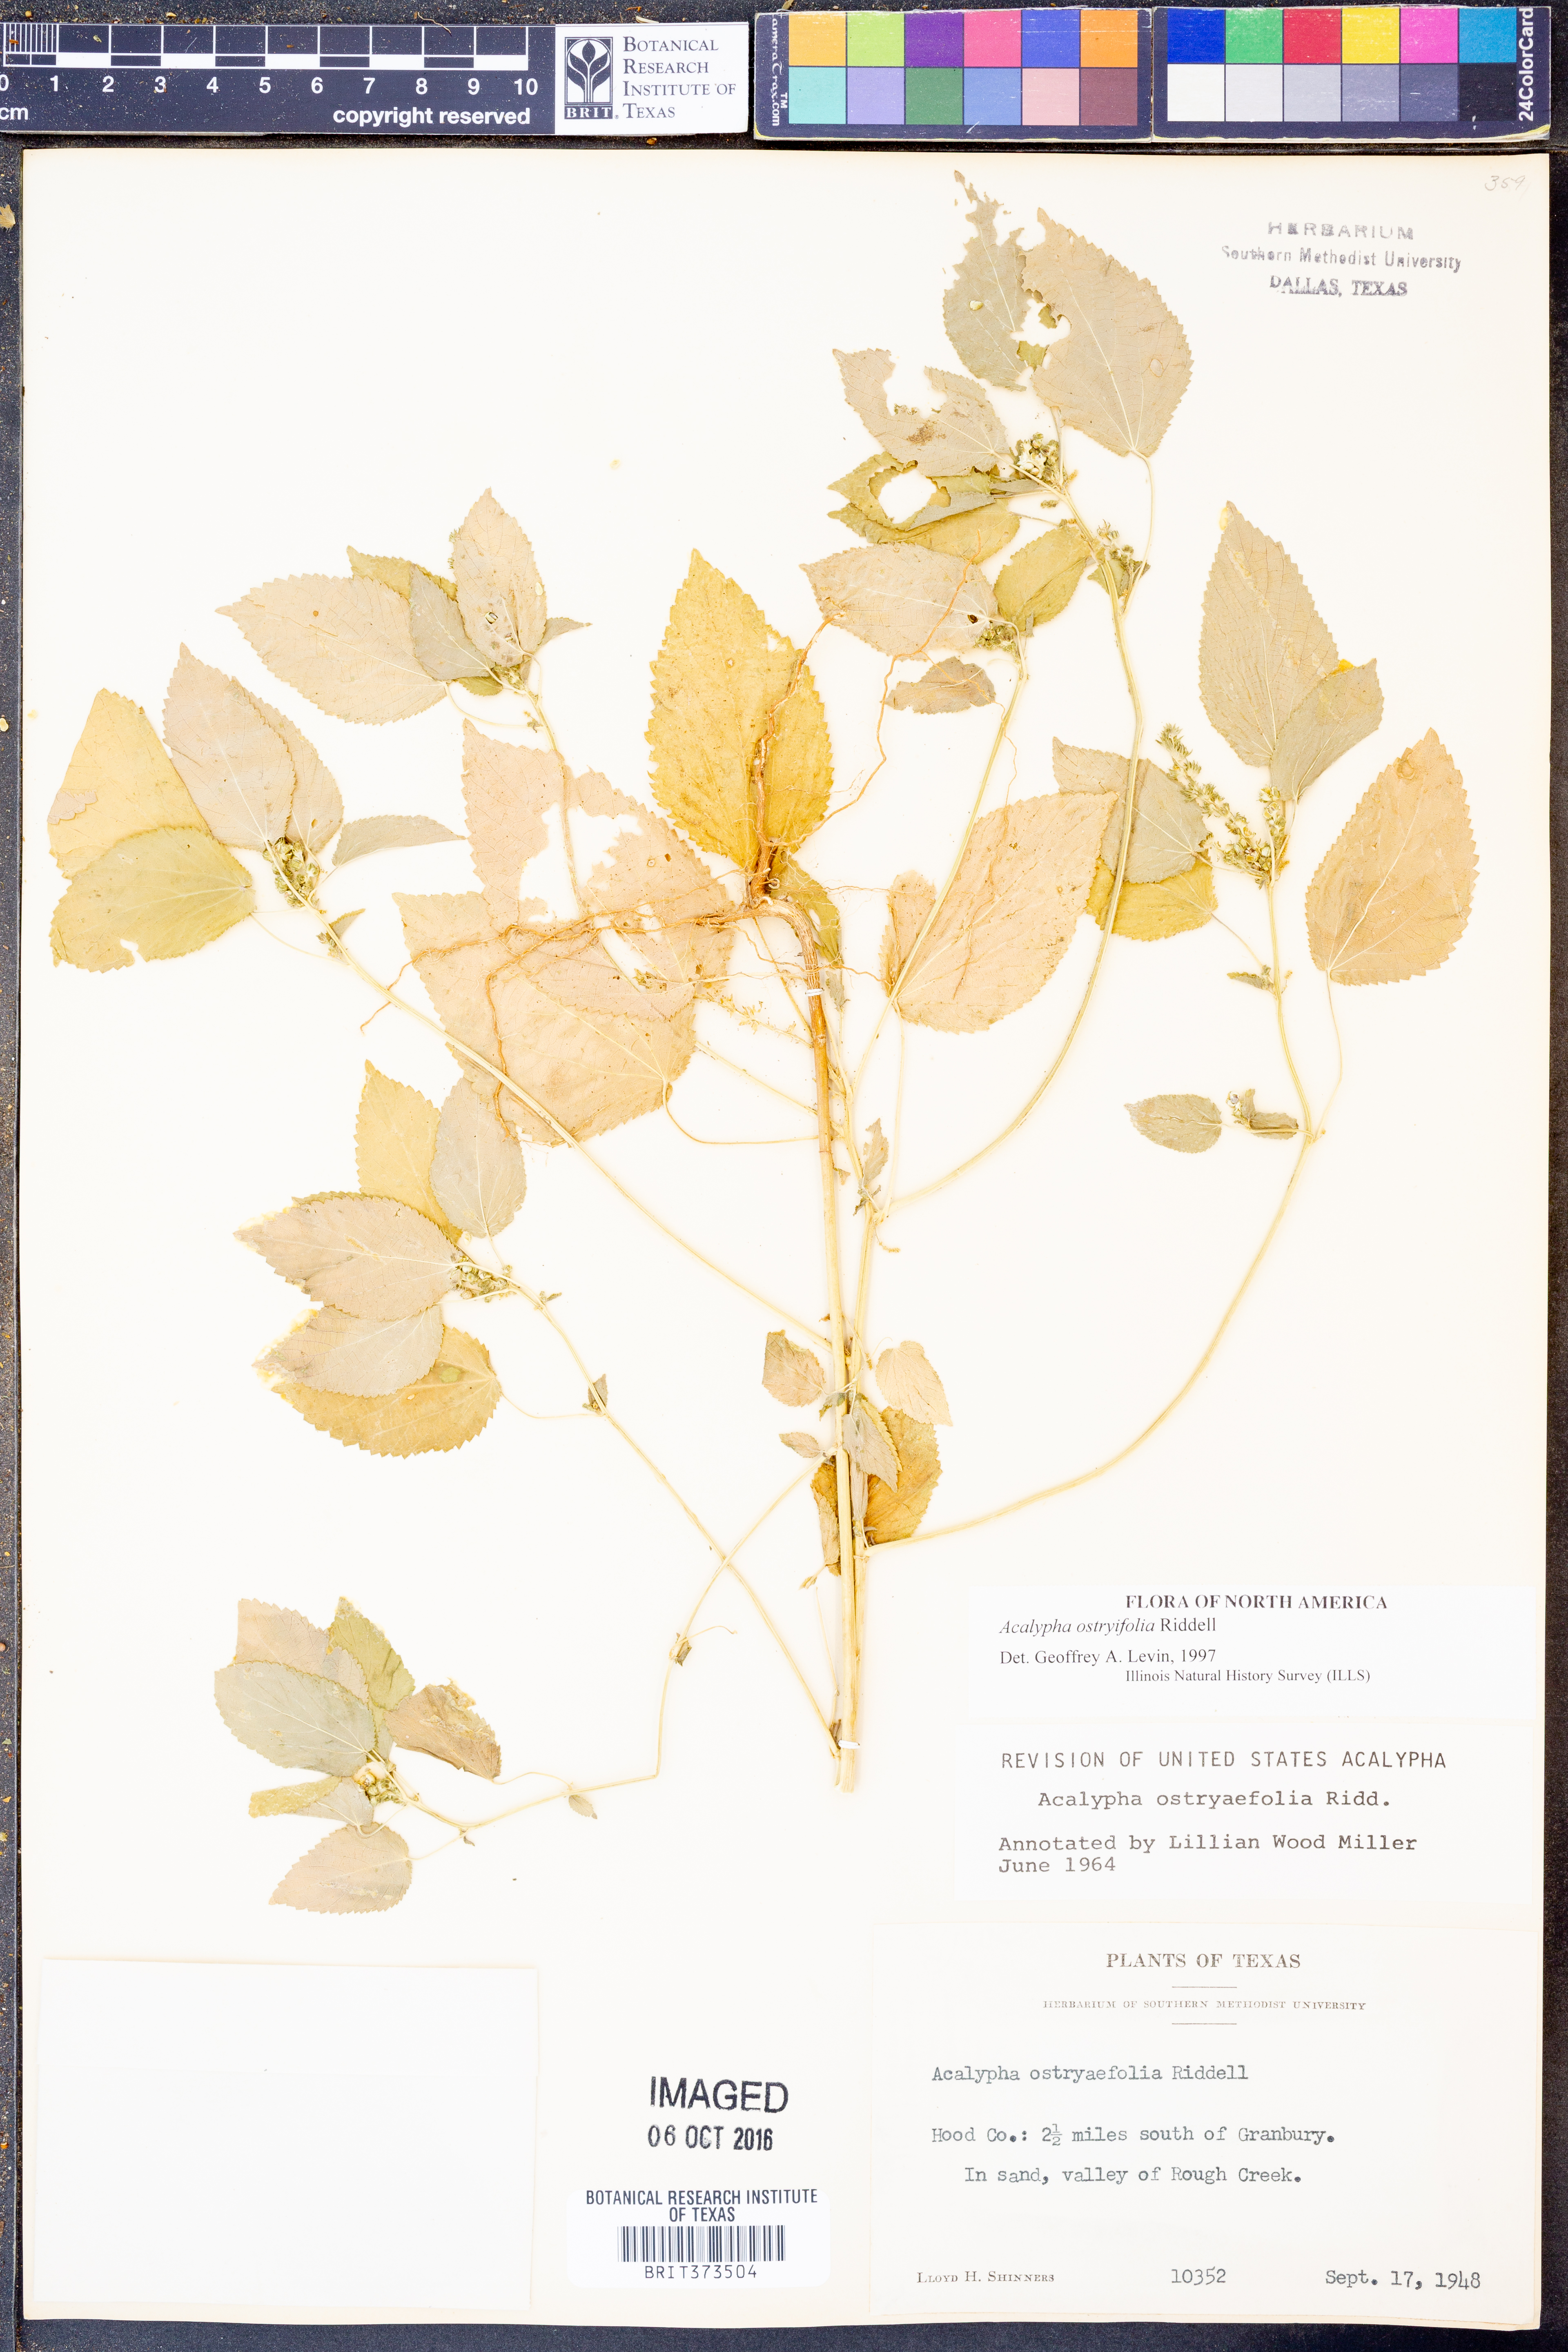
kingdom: Plantae
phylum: Tracheophyta
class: Magnoliopsida
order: Malpighiales
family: Euphorbiaceae
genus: Acalypha
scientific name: Acalypha persimilis
